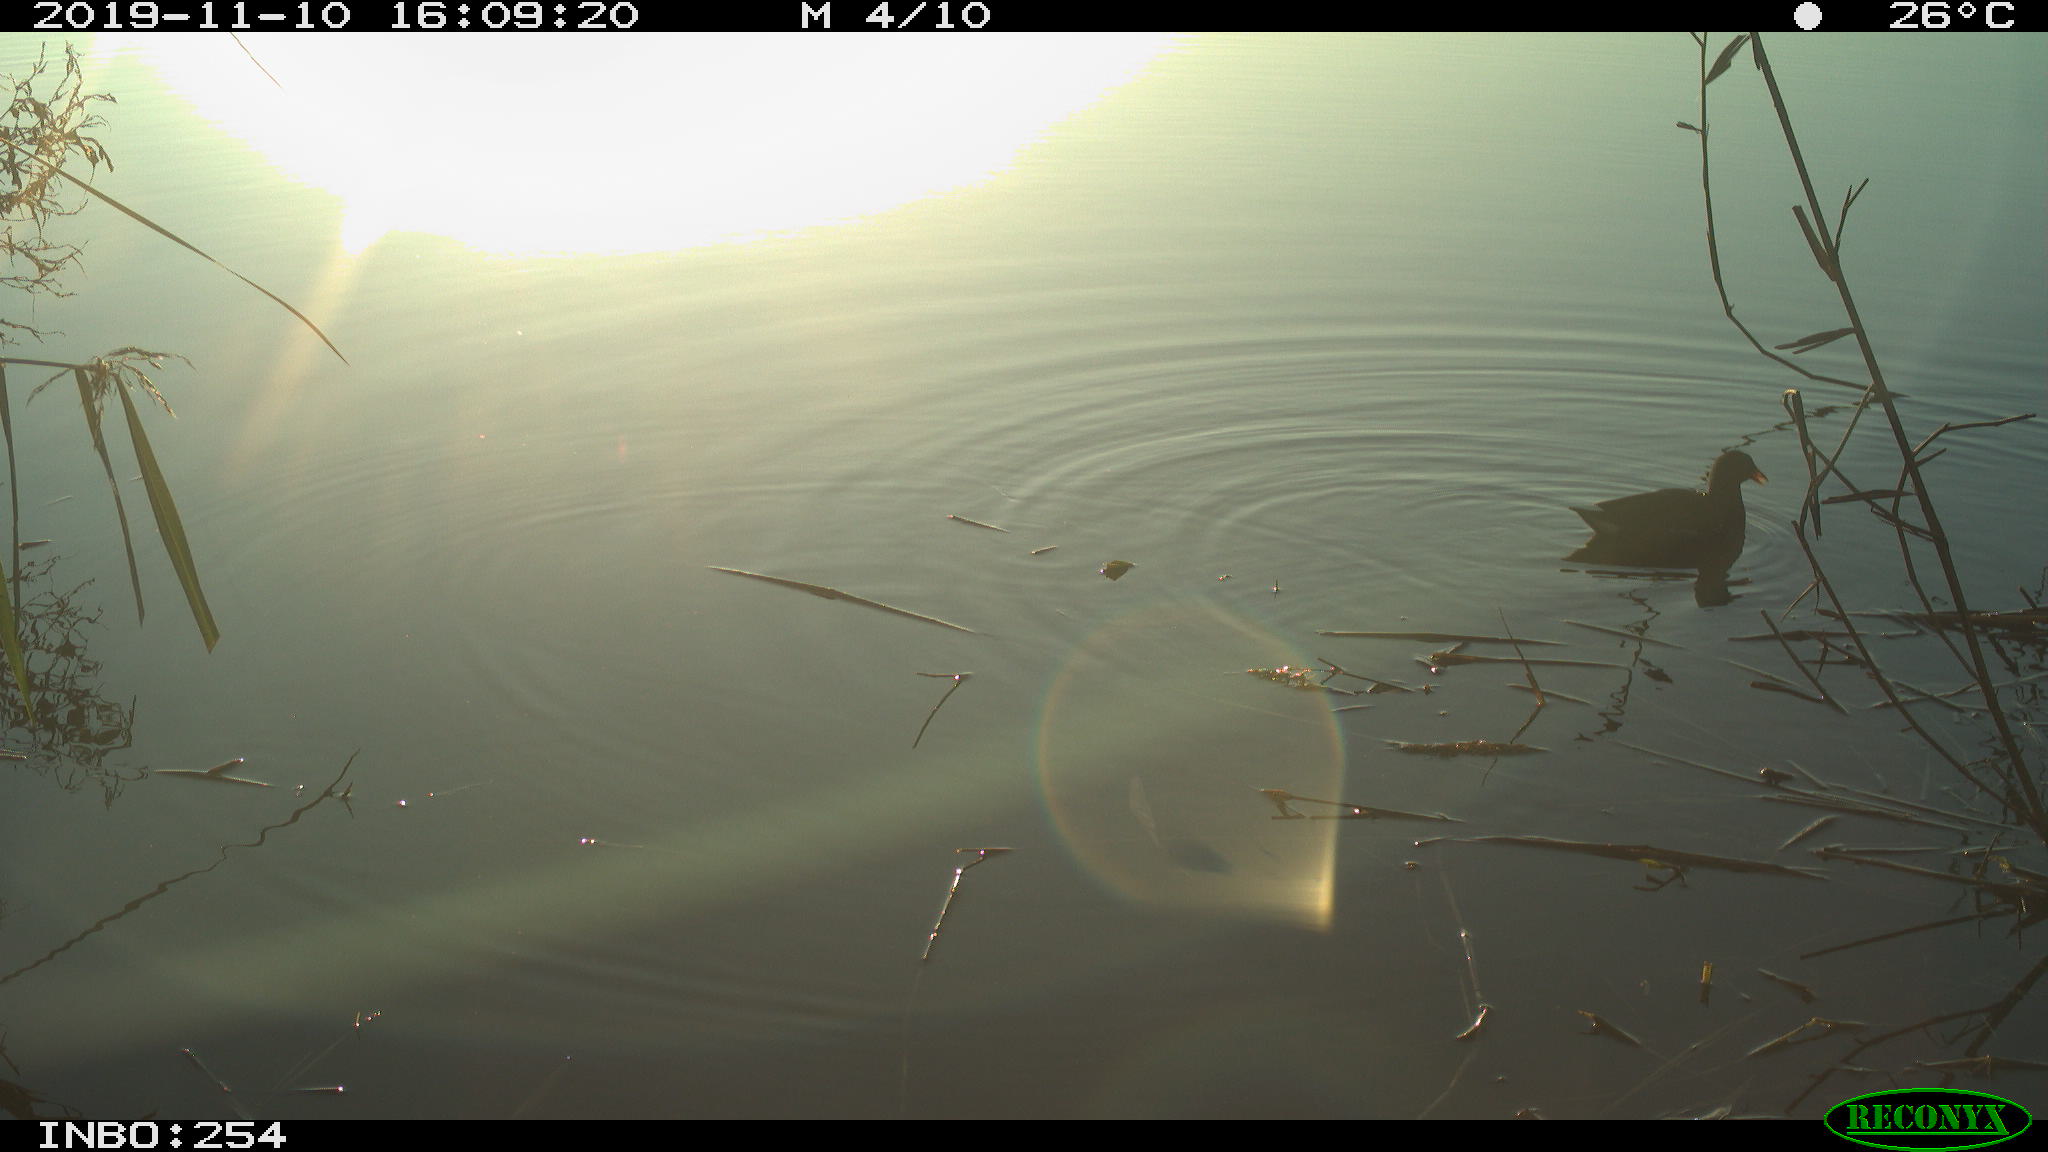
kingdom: Animalia
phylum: Chordata
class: Aves
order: Gruiformes
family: Rallidae
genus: Gallinula
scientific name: Gallinula chloropus
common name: Common moorhen
